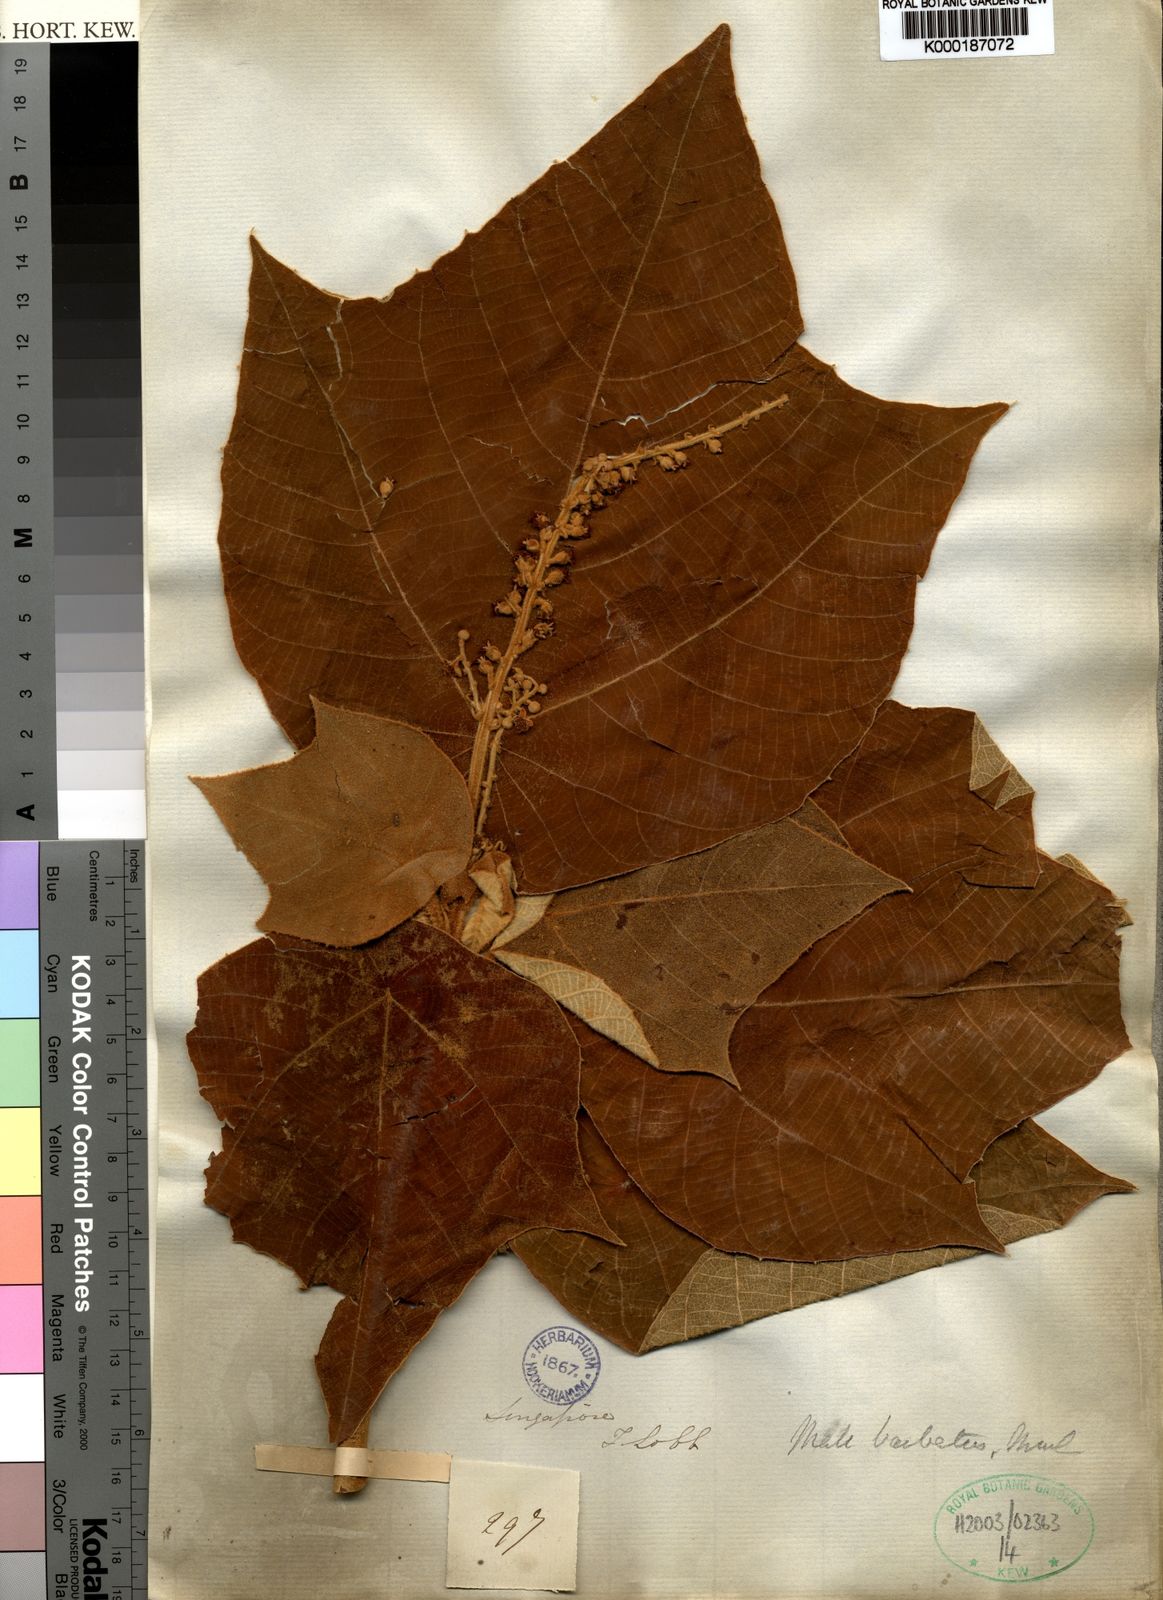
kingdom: Plantae
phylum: Tracheophyta
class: Magnoliopsida
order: Malpighiales
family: Euphorbiaceae
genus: Mallotus
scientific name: Mallotus
